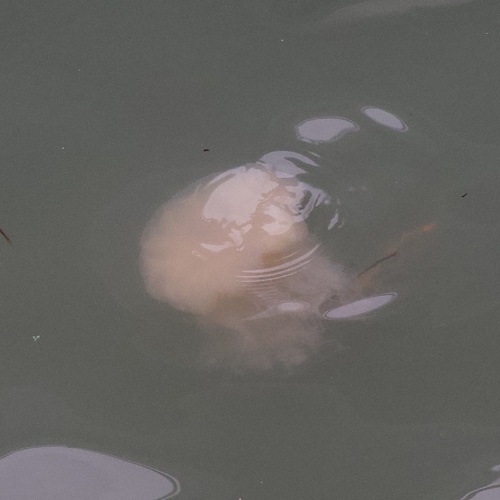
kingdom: Animalia
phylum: Cnidaria
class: Scyphozoa
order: Semaeostomeae
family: Cyaneidae
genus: Cyanea
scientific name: Cyanea nozakii
